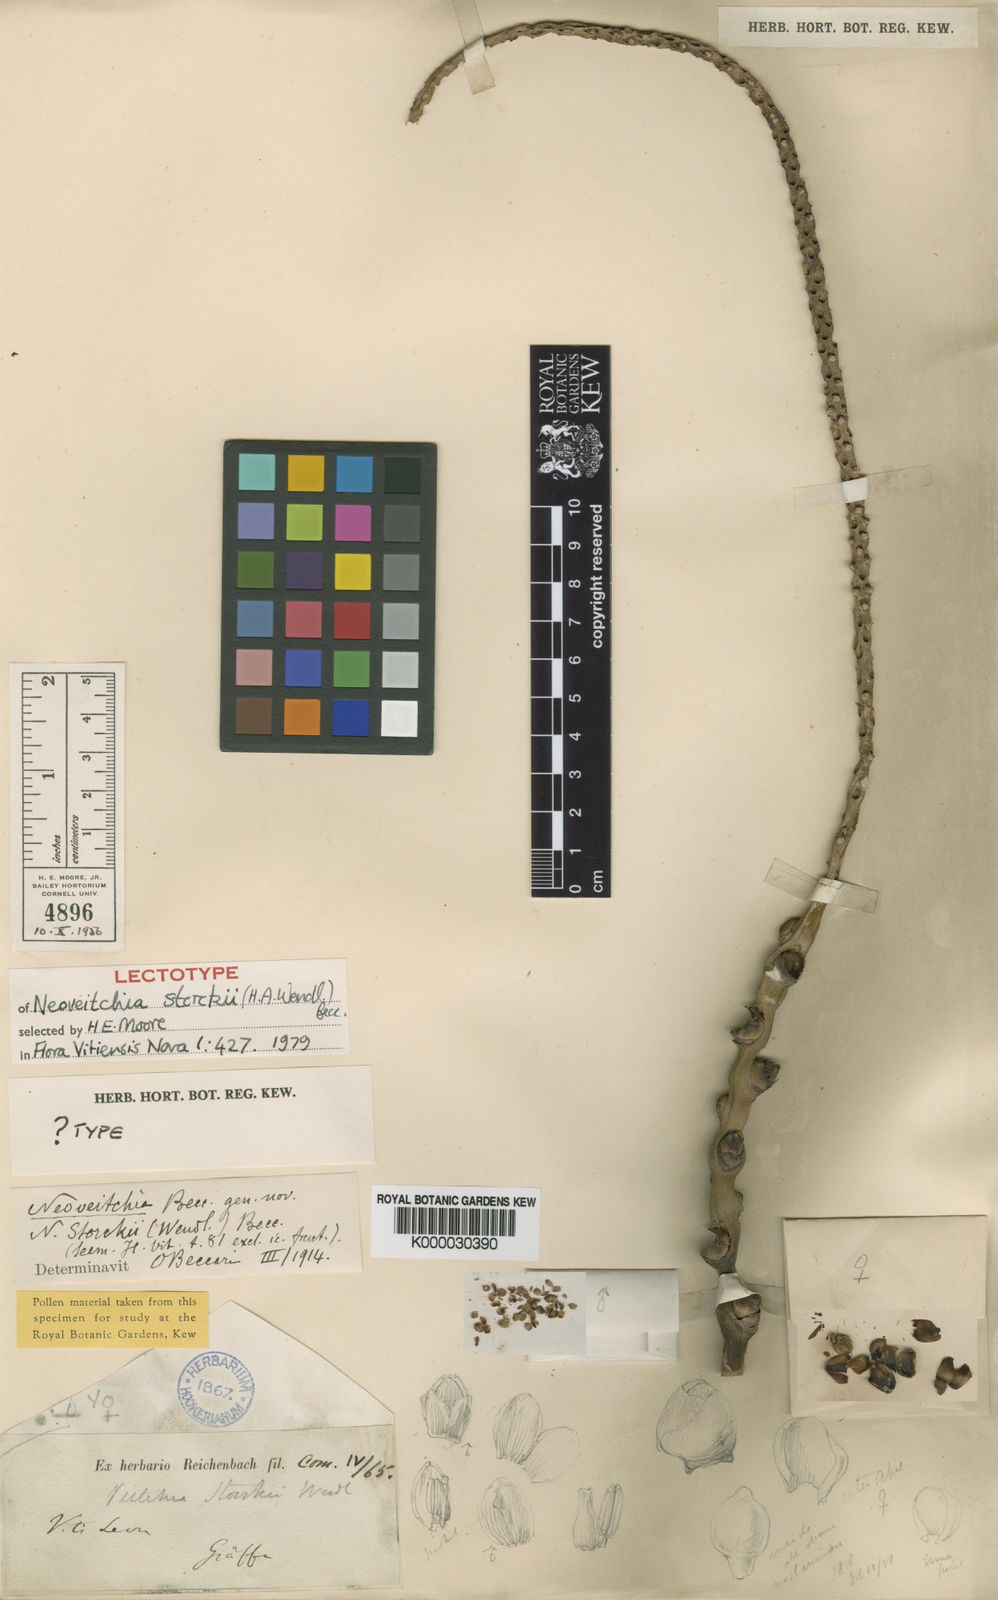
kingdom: Plantae
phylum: Tracheophyta
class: Liliopsida
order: Arecales
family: Arecaceae
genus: Neoveitchia
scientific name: Neoveitchia storckii
